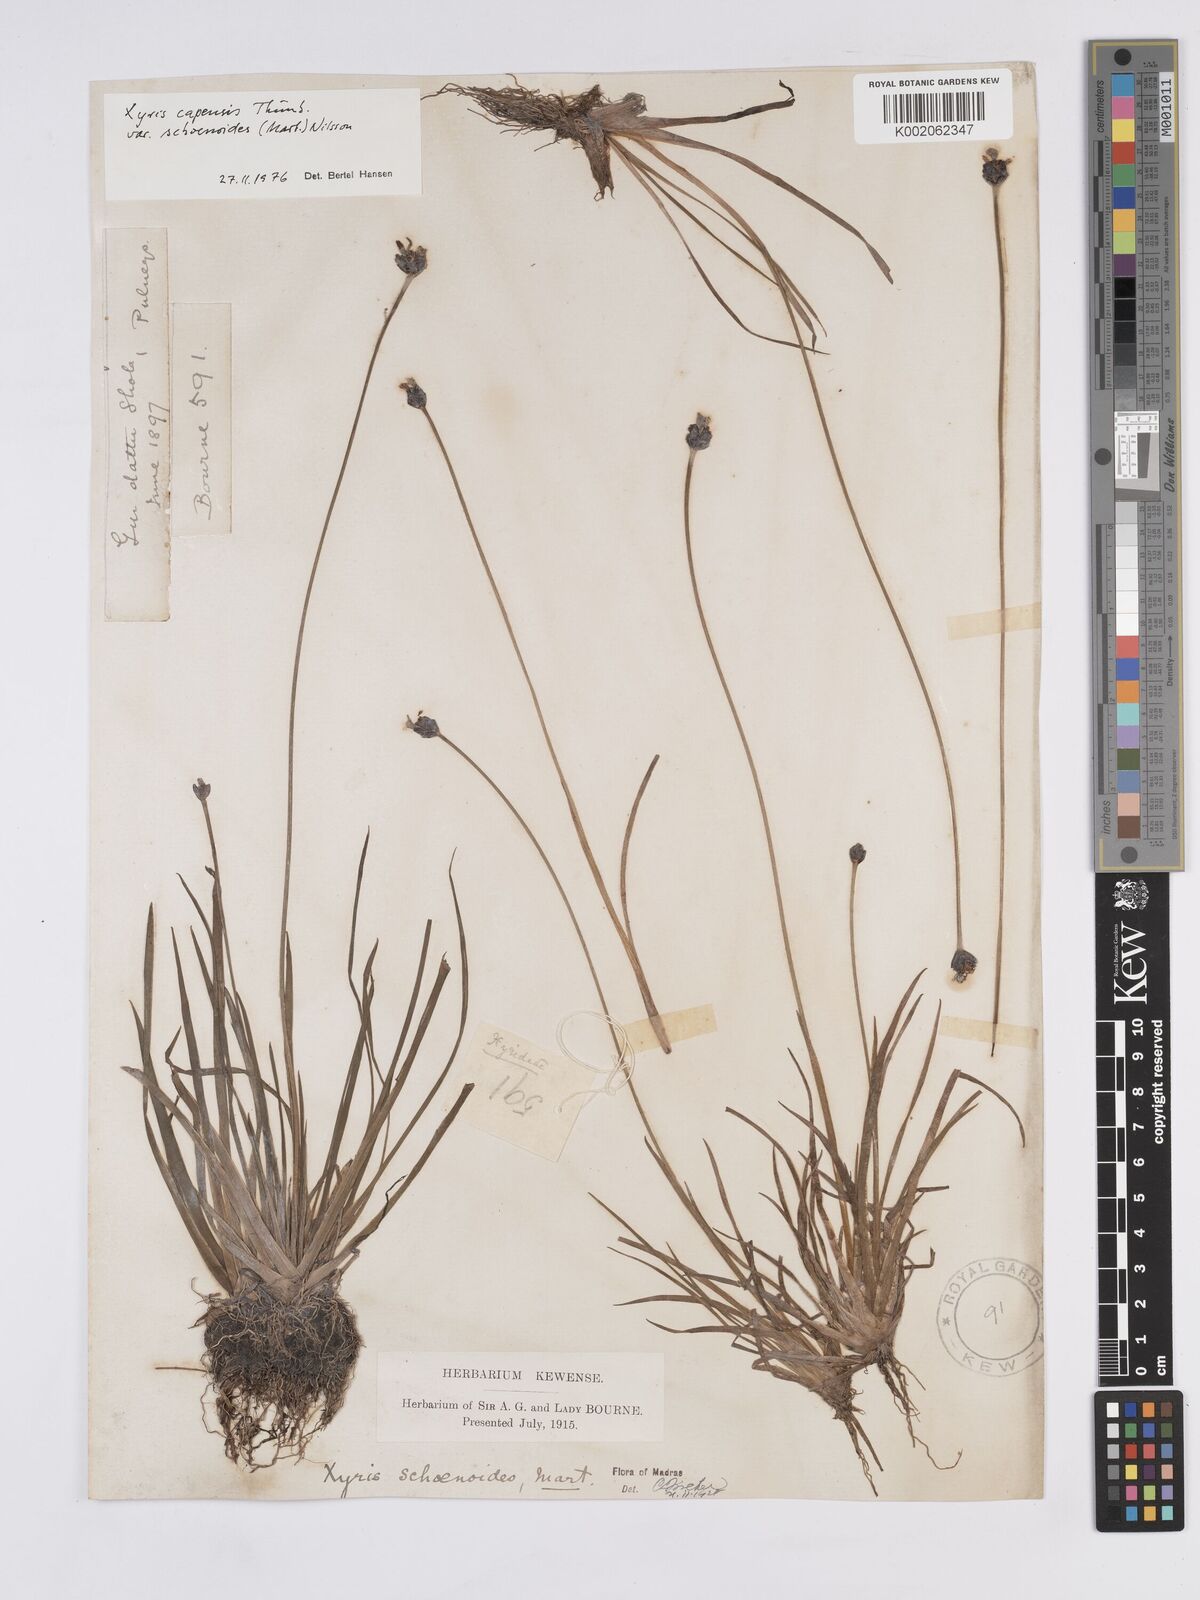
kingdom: Plantae
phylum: Tracheophyta
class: Liliopsida
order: Poales
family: Xyridaceae
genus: Xyris
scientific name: Xyris capensis
